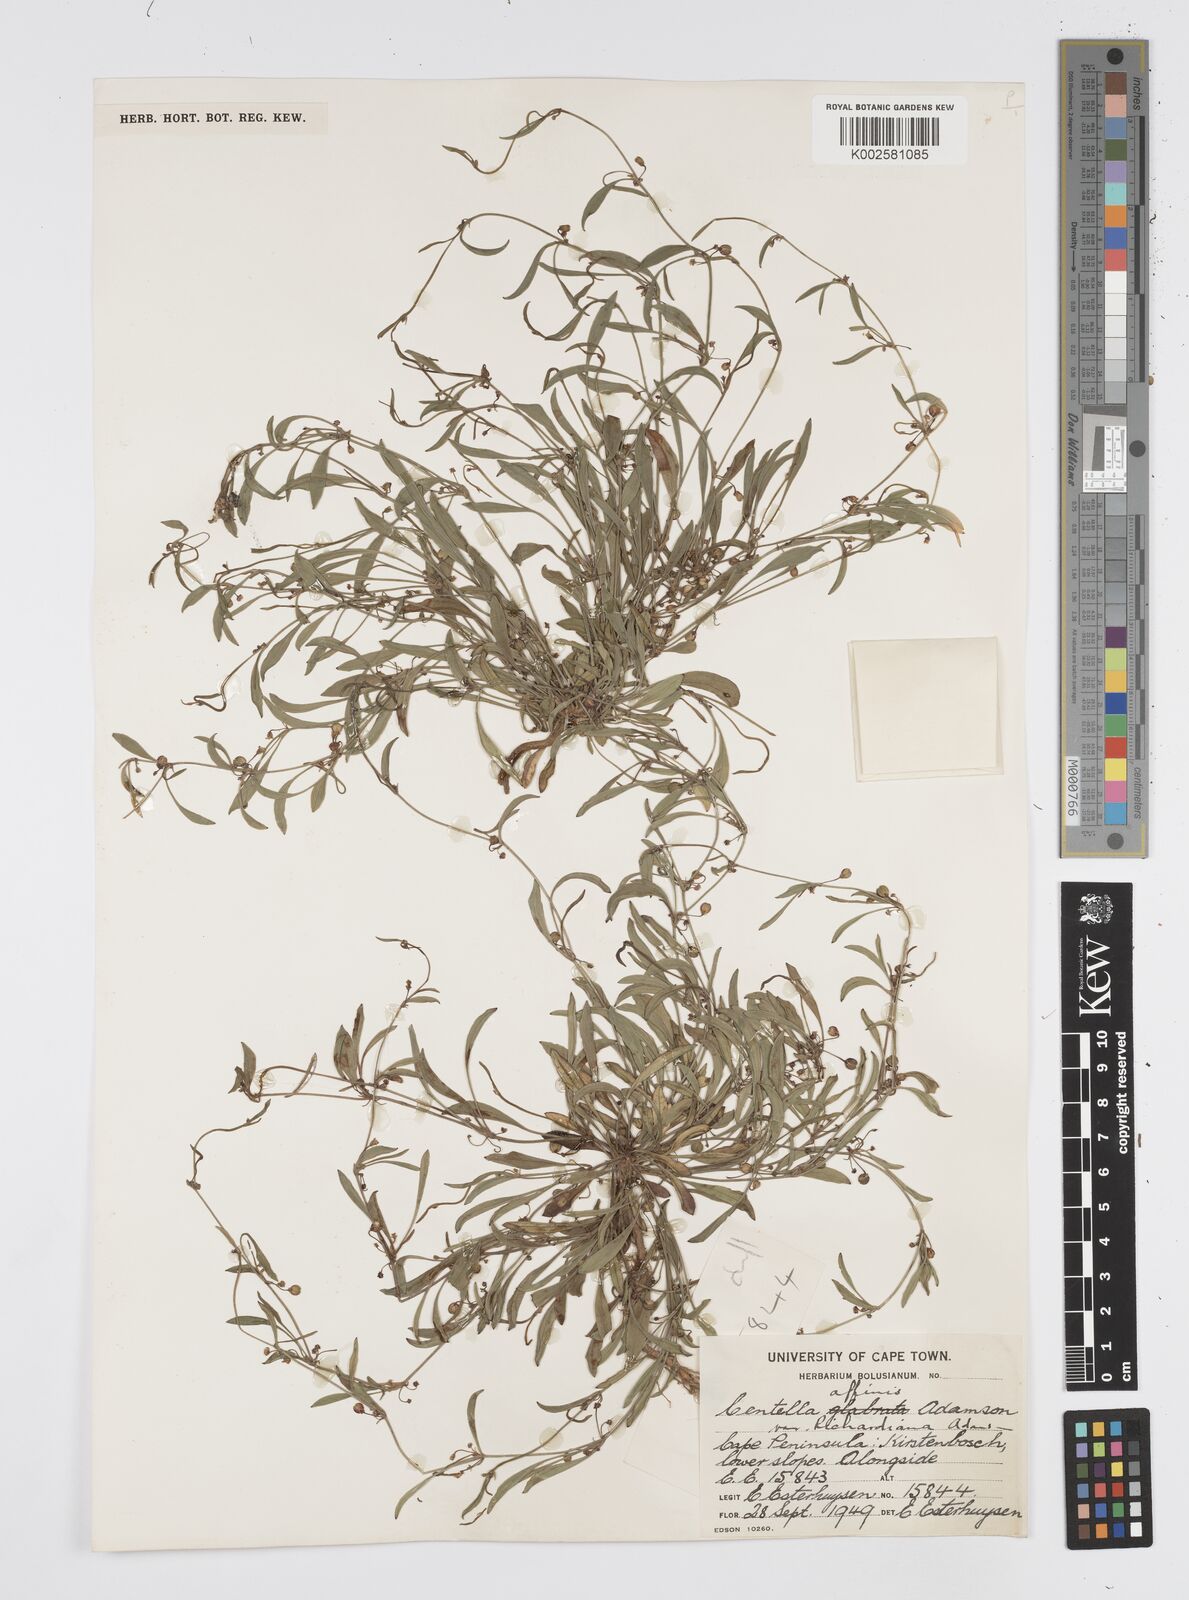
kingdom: Plantae
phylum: Tracheophyta
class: Magnoliopsida
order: Apiales
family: Apiaceae
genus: Centella
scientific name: Centella affinis
